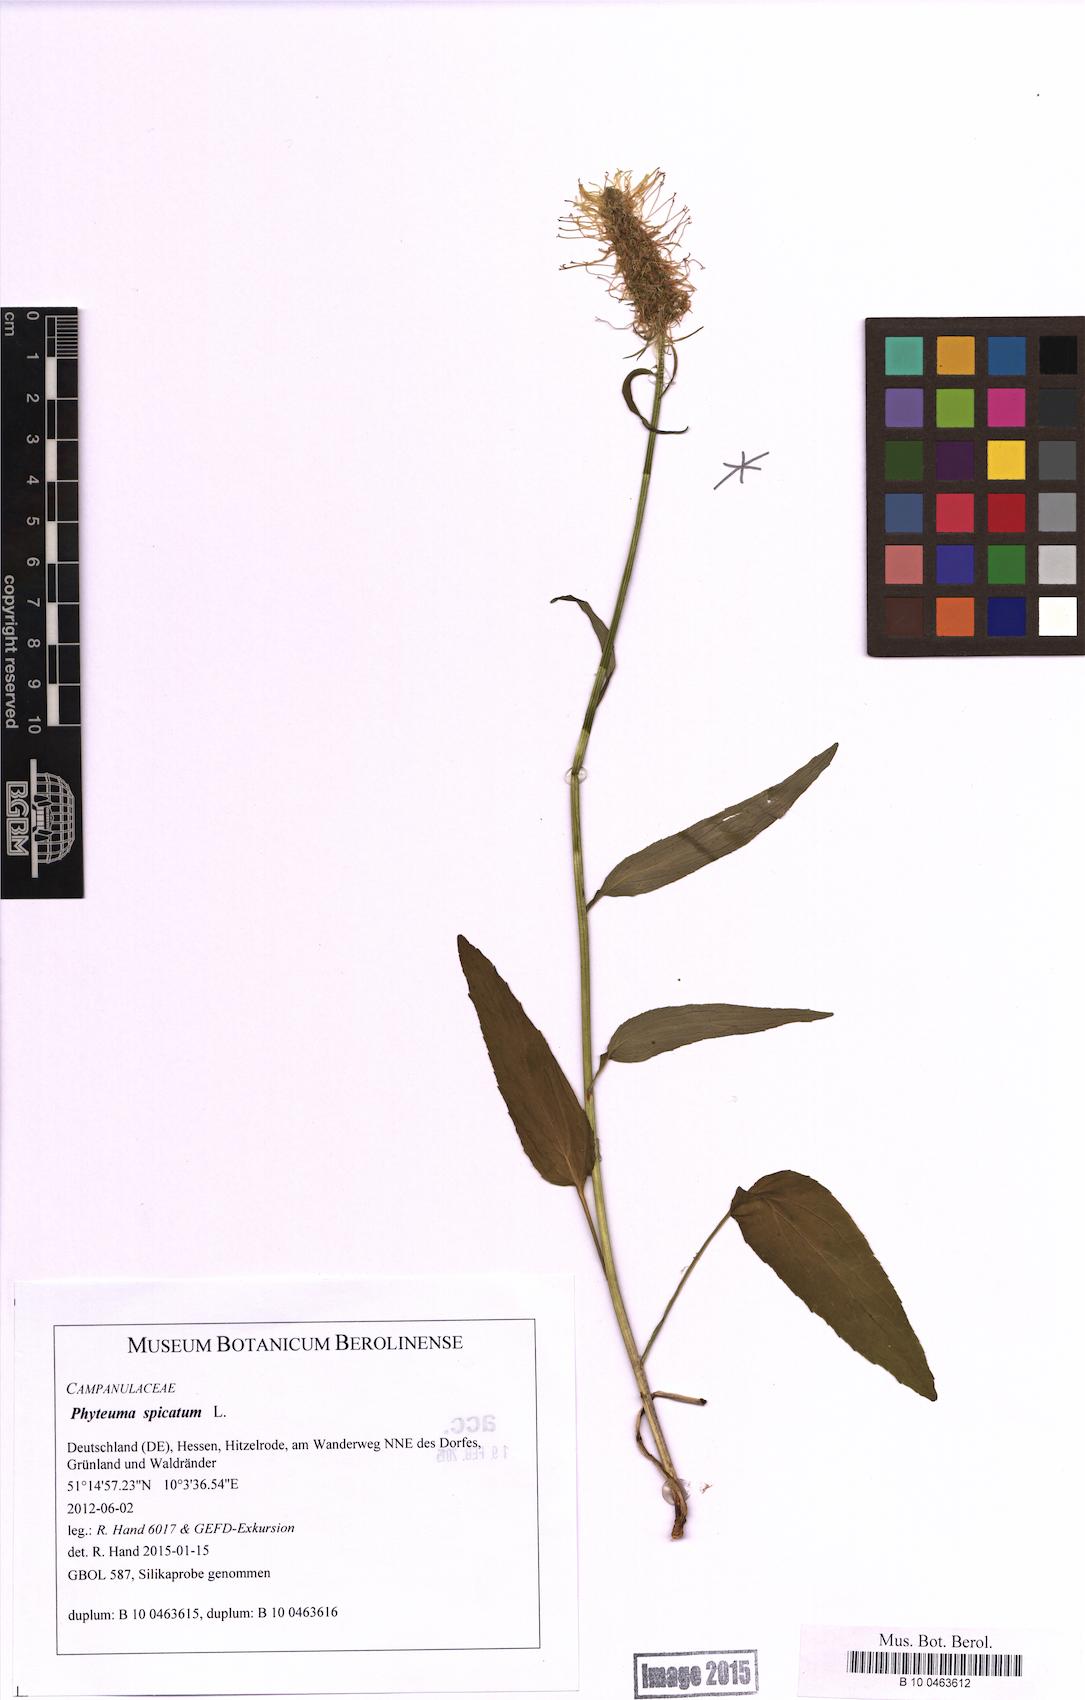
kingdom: Plantae
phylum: Tracheophyta
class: Magnoliopsida
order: Asterales
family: Campanulaceae
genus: Phyteuma
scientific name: Phyteuma spicatum
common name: Spiked rampion
